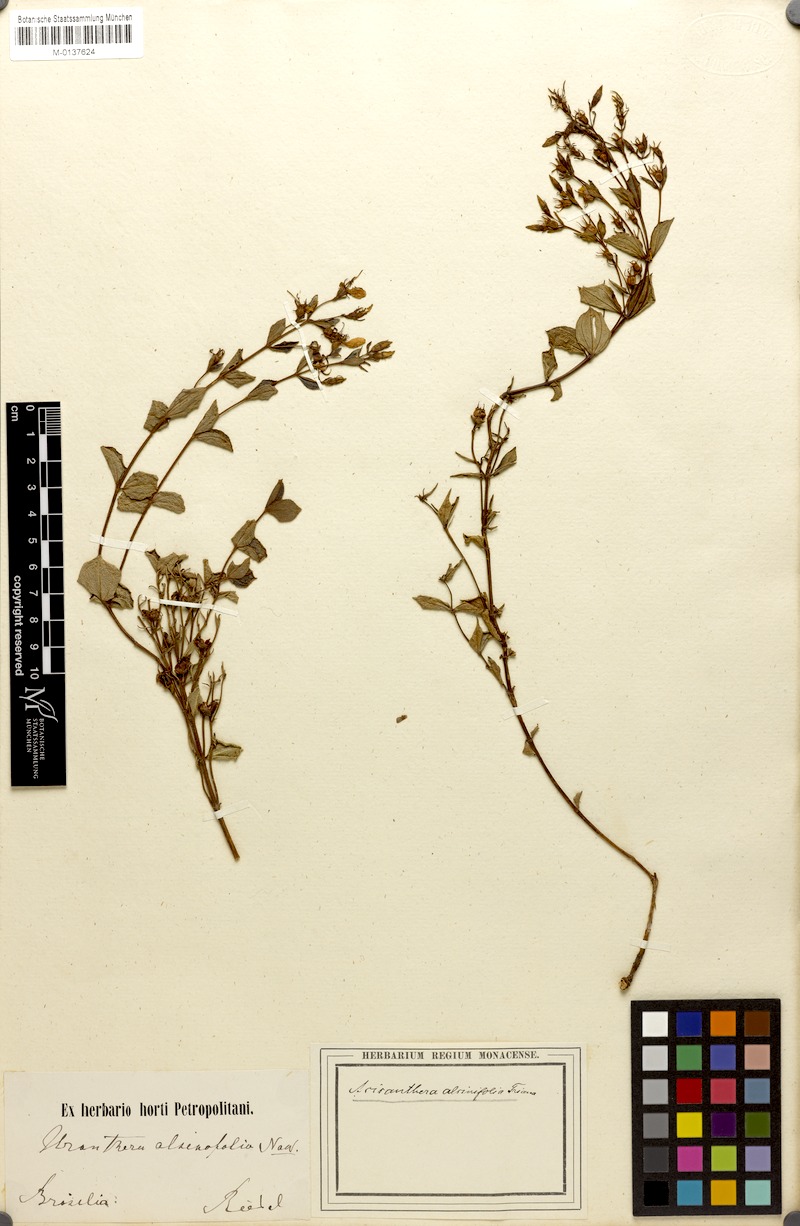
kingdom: Plantae
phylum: Tracheophyta
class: Magnoliopsida
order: Myrtales
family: Melastomataceae
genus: Acisanthera
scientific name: Acisanthera alsinaefolia
